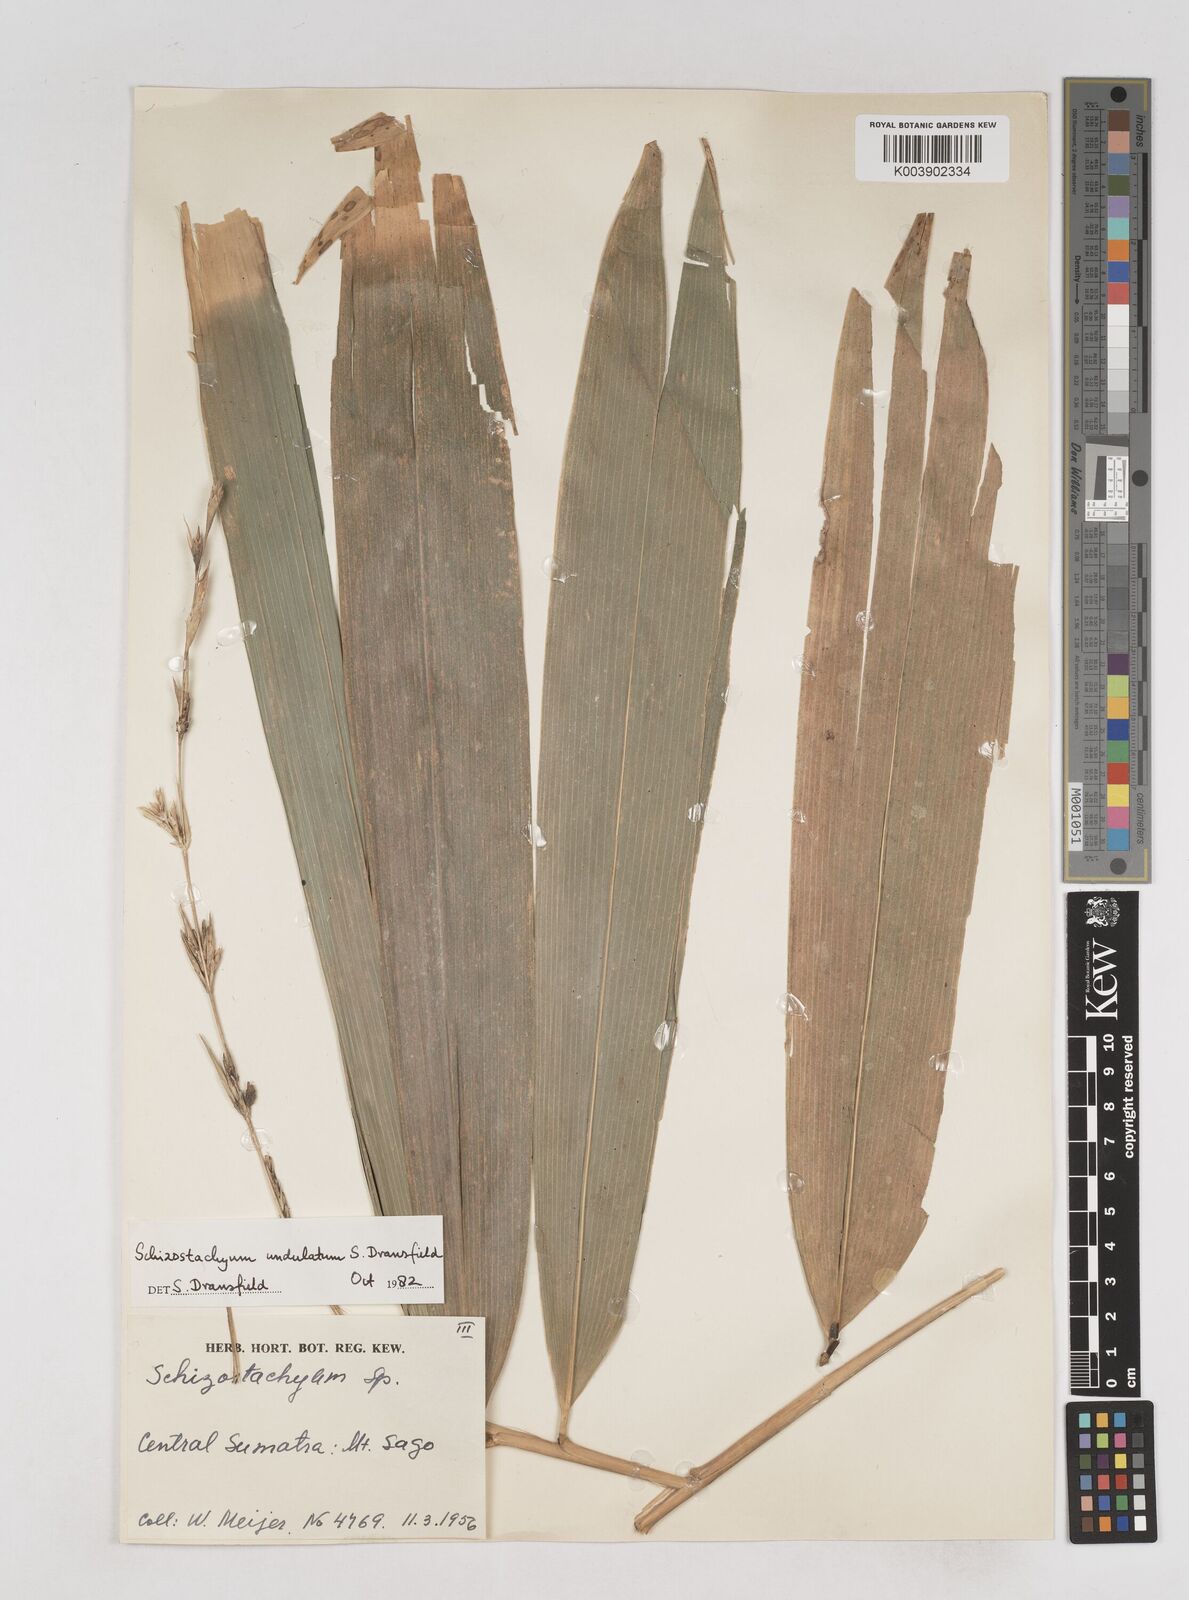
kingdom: Plantae
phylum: Tracheophyta
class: Liliopsida
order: Poales
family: Poaceae
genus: Schizostachyum
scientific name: Schizostachyum
